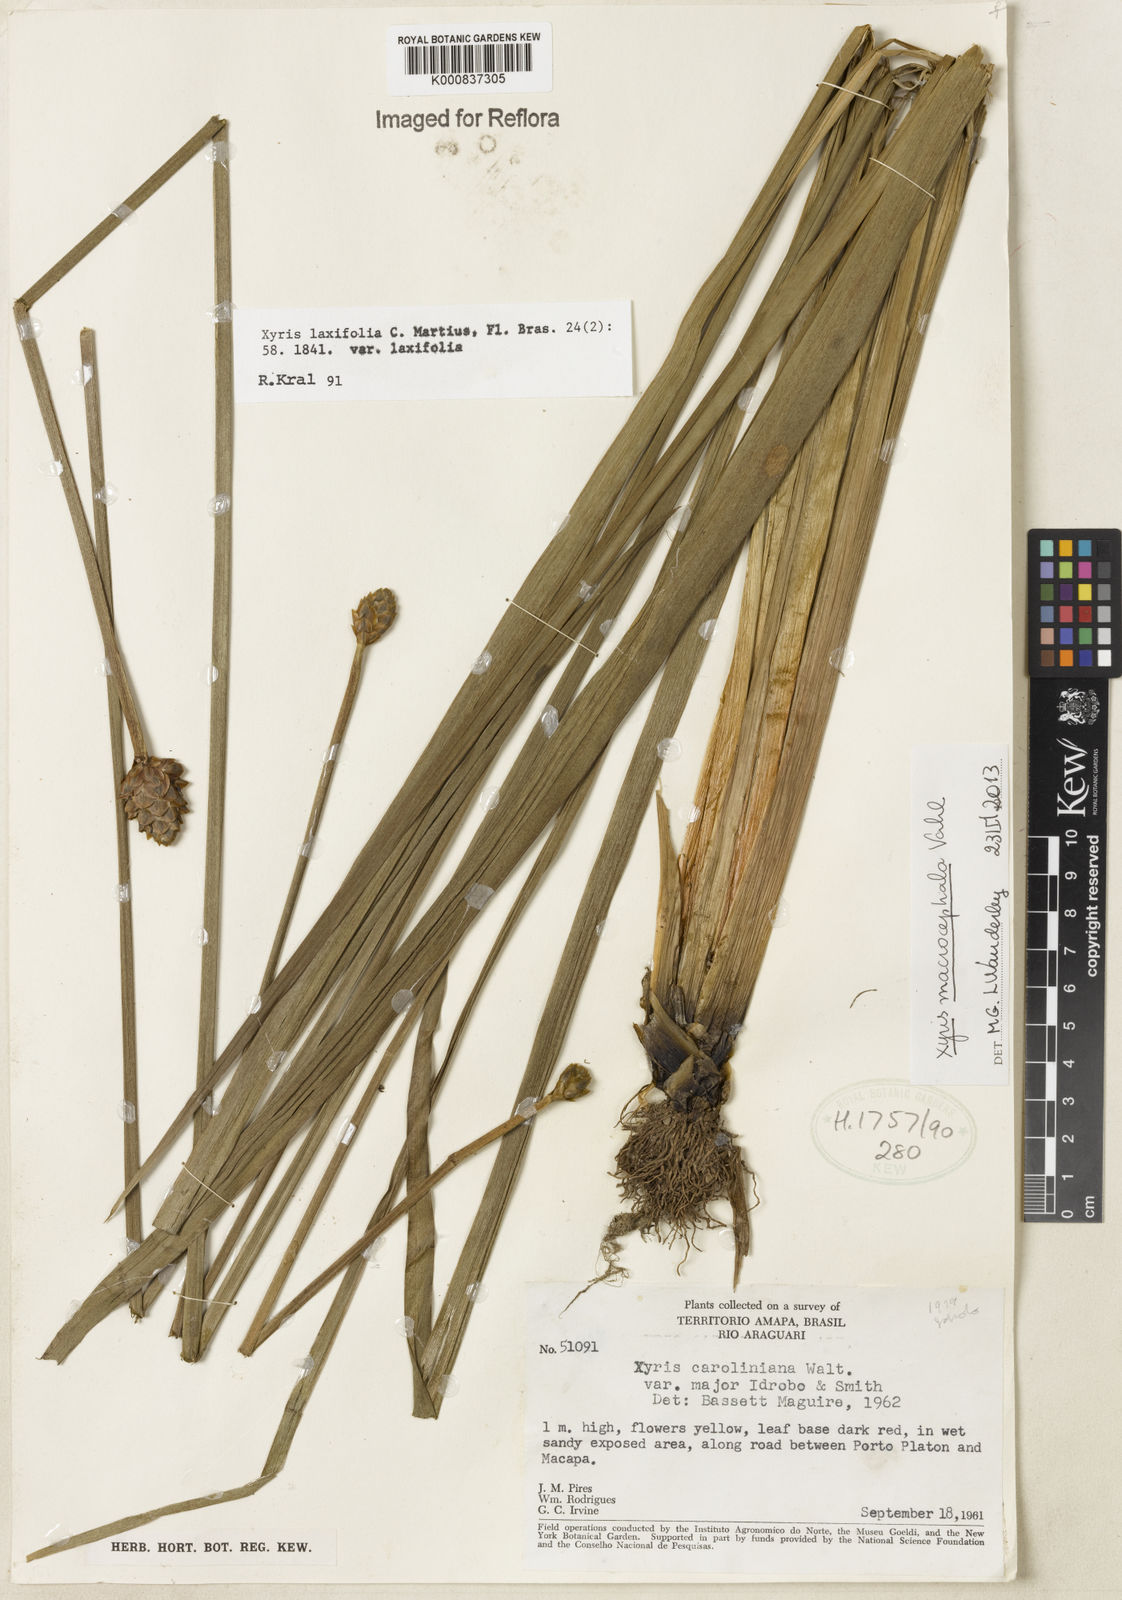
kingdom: Plantae
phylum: Tracheophyta
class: Liliopsida
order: Poales
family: Xyridaceae
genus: Xyris
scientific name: Xyris jupicai
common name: Richard's yelloweyed grass
